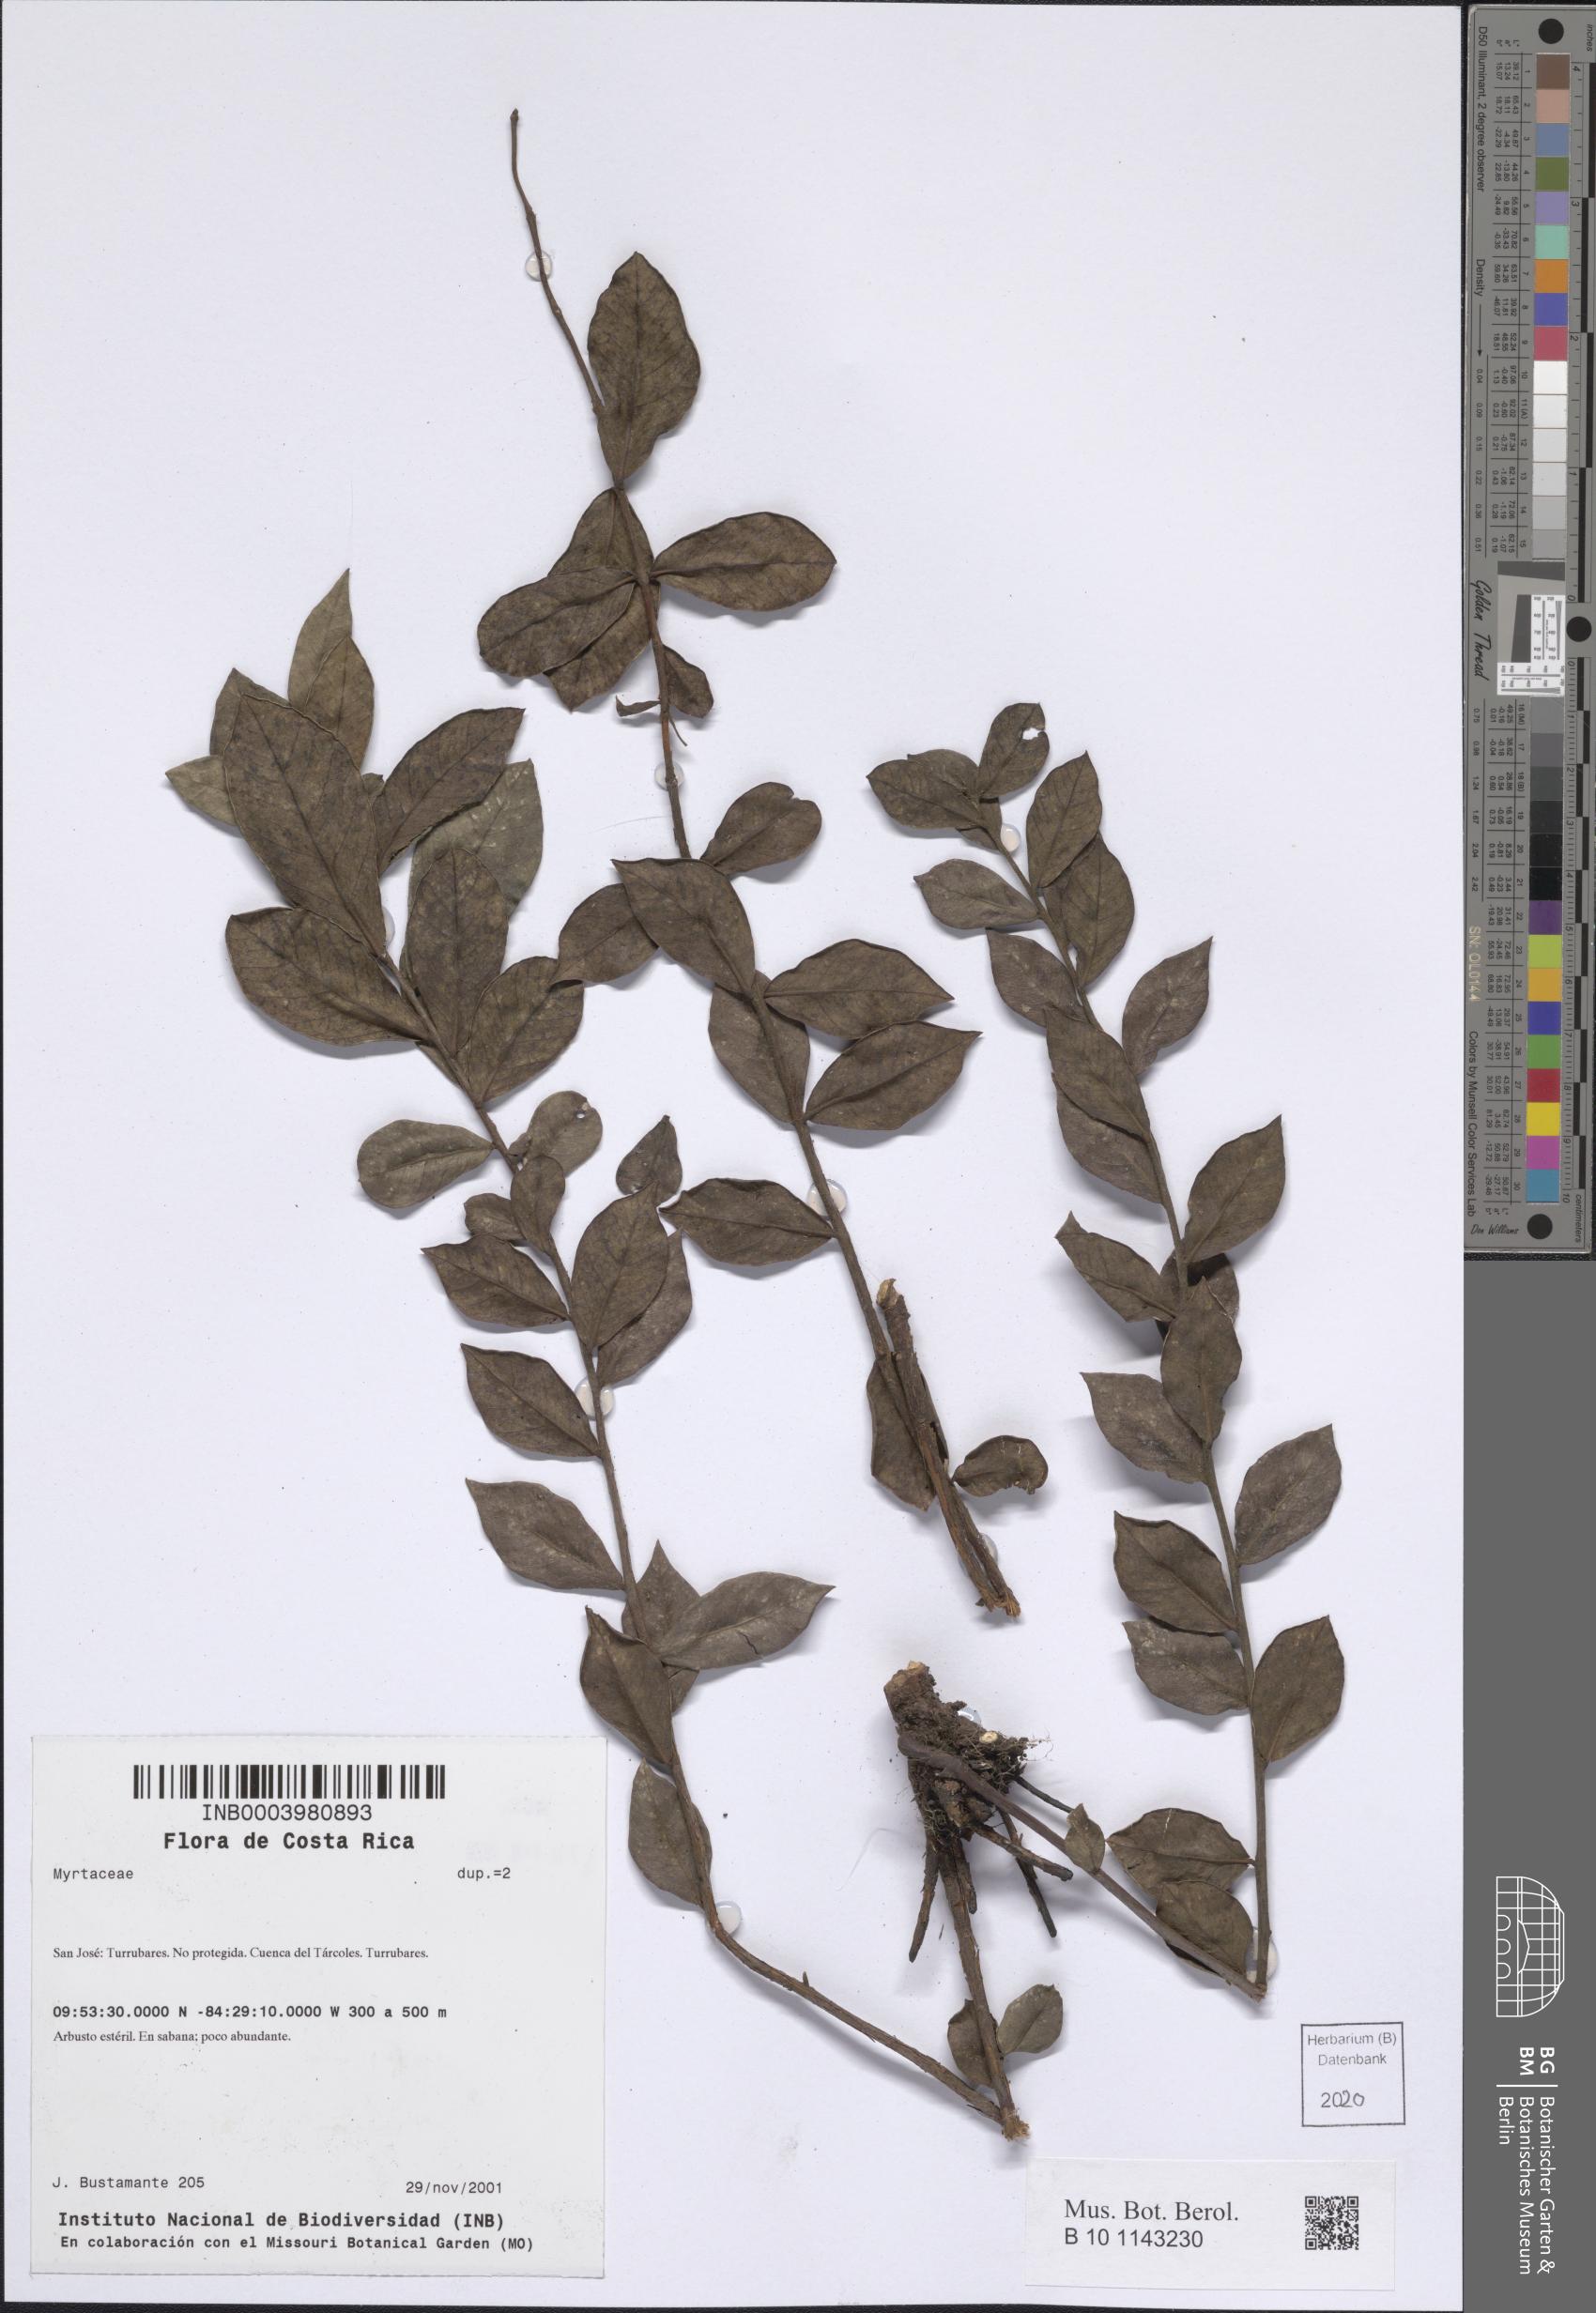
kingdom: Plantae
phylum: Tracheophyta
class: Magnoliopsida
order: Myrtales
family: Myrtaceae
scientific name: Myrtaceae
